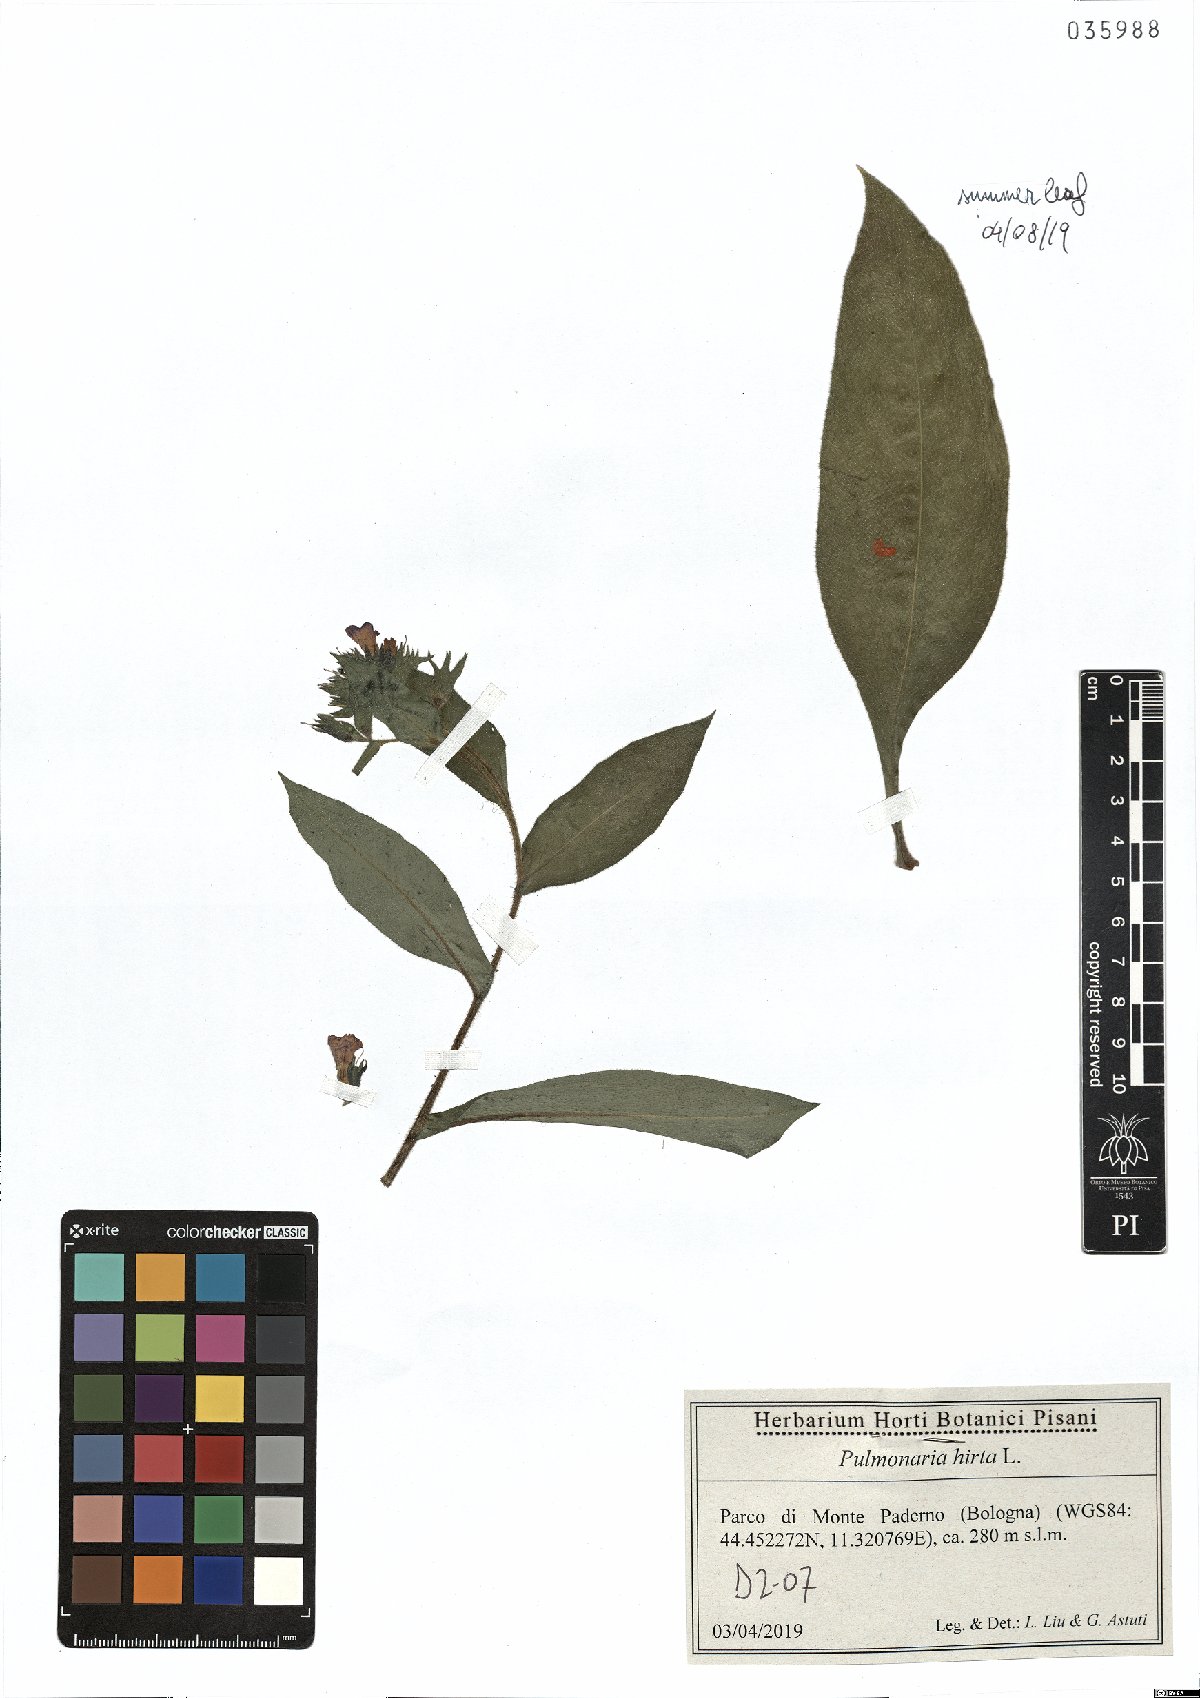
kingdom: Plantae
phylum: Tracheophyta
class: Magnoliopsida
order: Boraginales
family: Boraginaceae
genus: Pulmonaria
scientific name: Pulmonaria hirta
